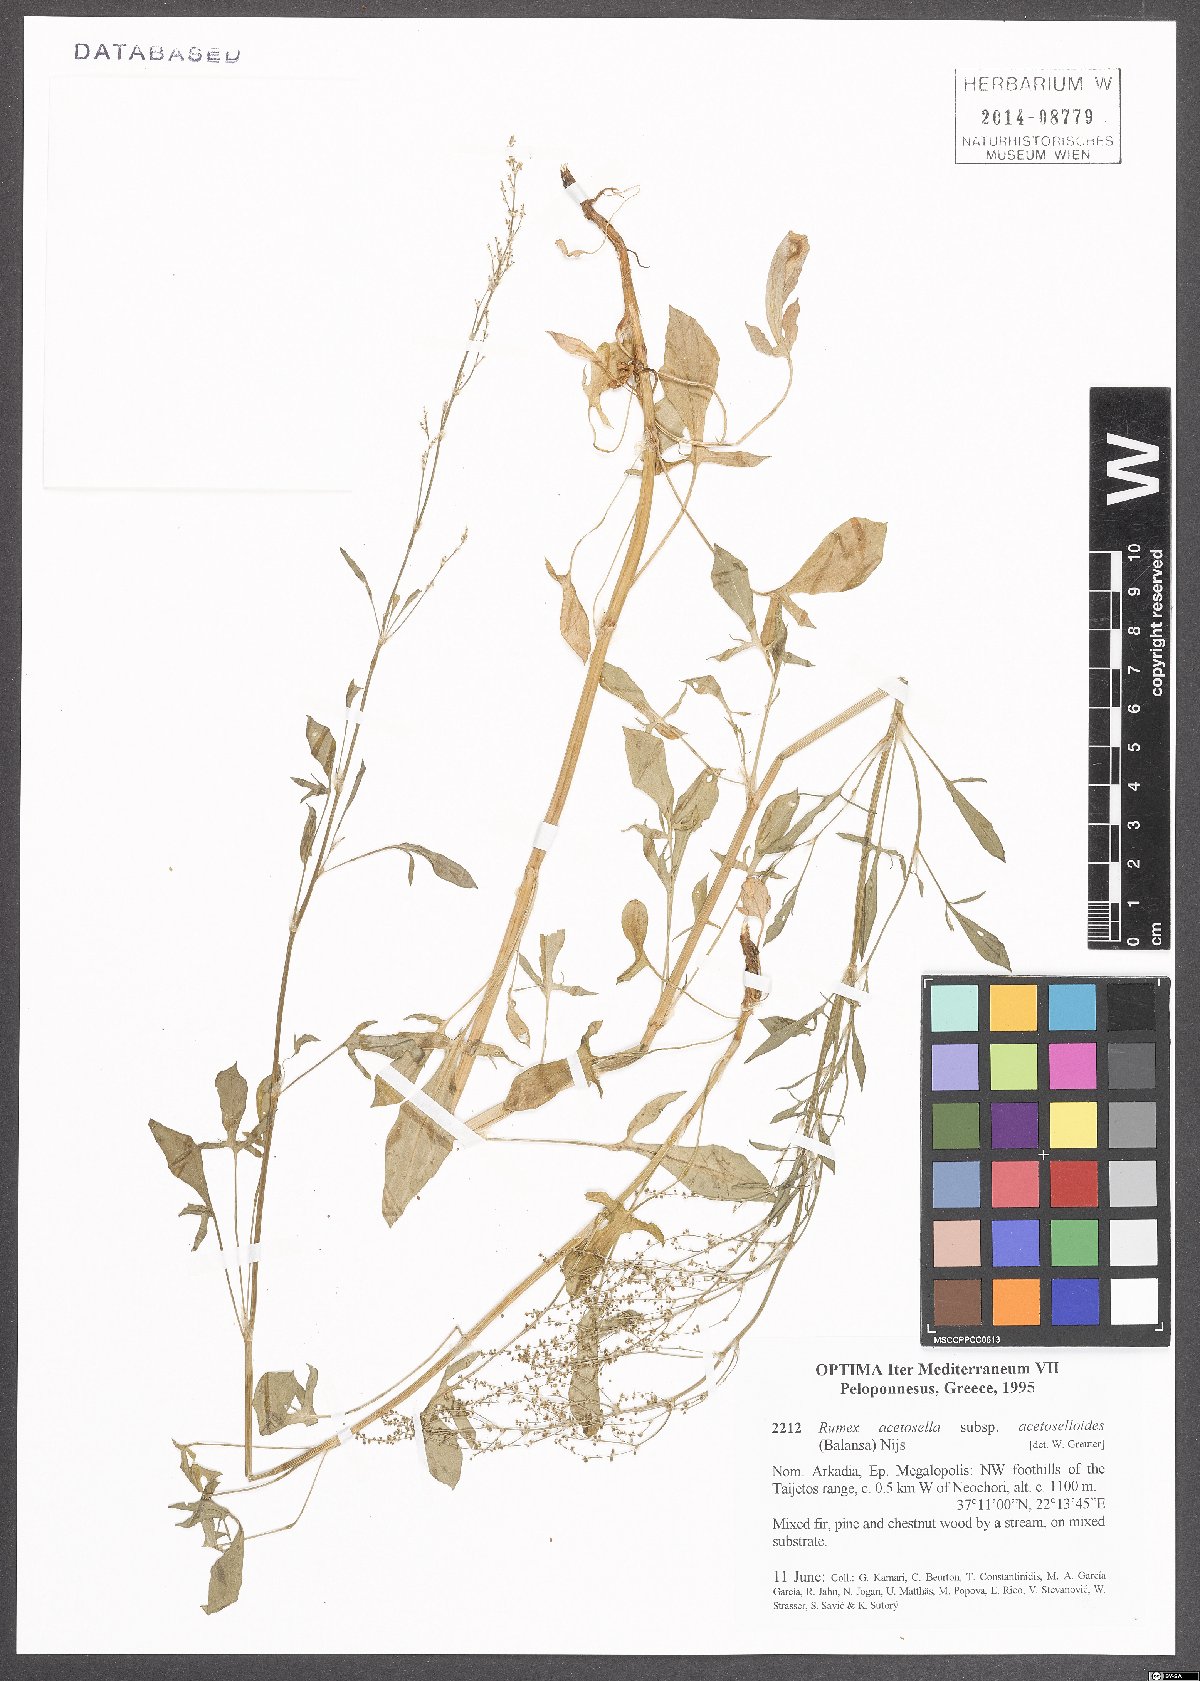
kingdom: Plantae
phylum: Tracheophyta
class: Magnoliopsida
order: Caryophyllales
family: Polygonaceae
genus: Rumex
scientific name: Rumex acetosella
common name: Common sheep sorrel
